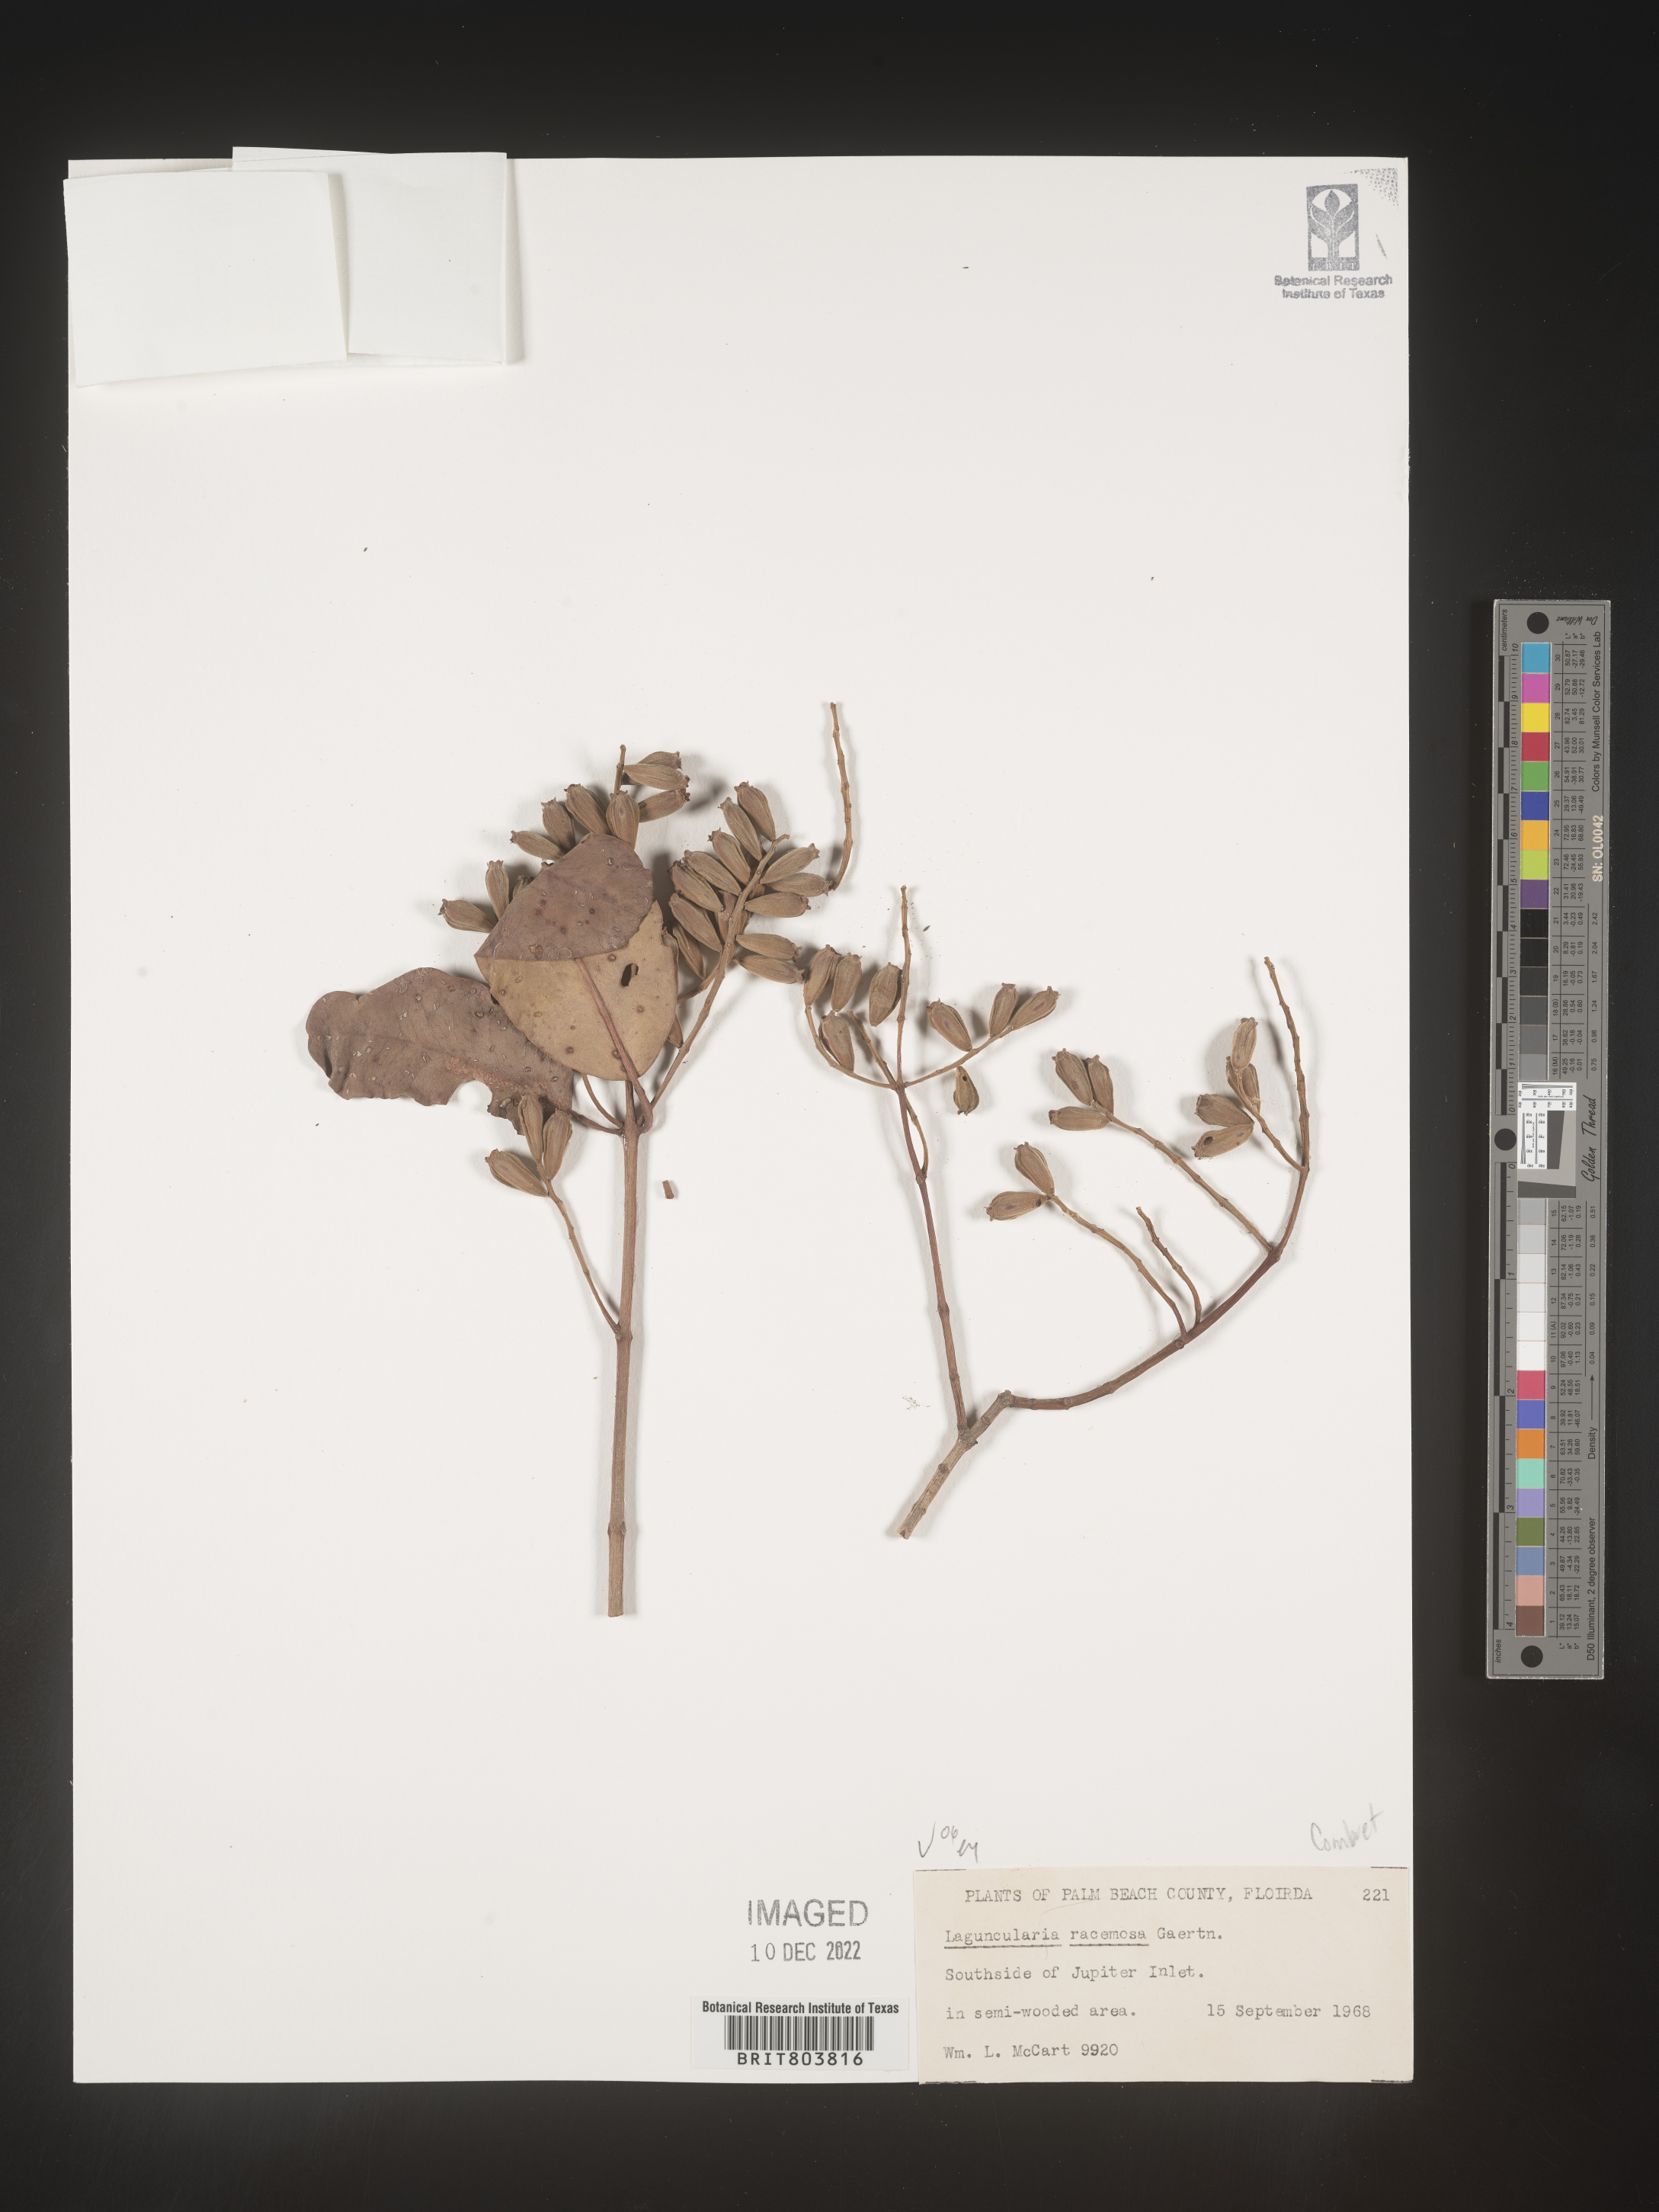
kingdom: Plantae
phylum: Tracheophyta
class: Magnoliopsida
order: Myrtales
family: Combretaceae
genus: Laguncularia
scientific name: Laguncularia
